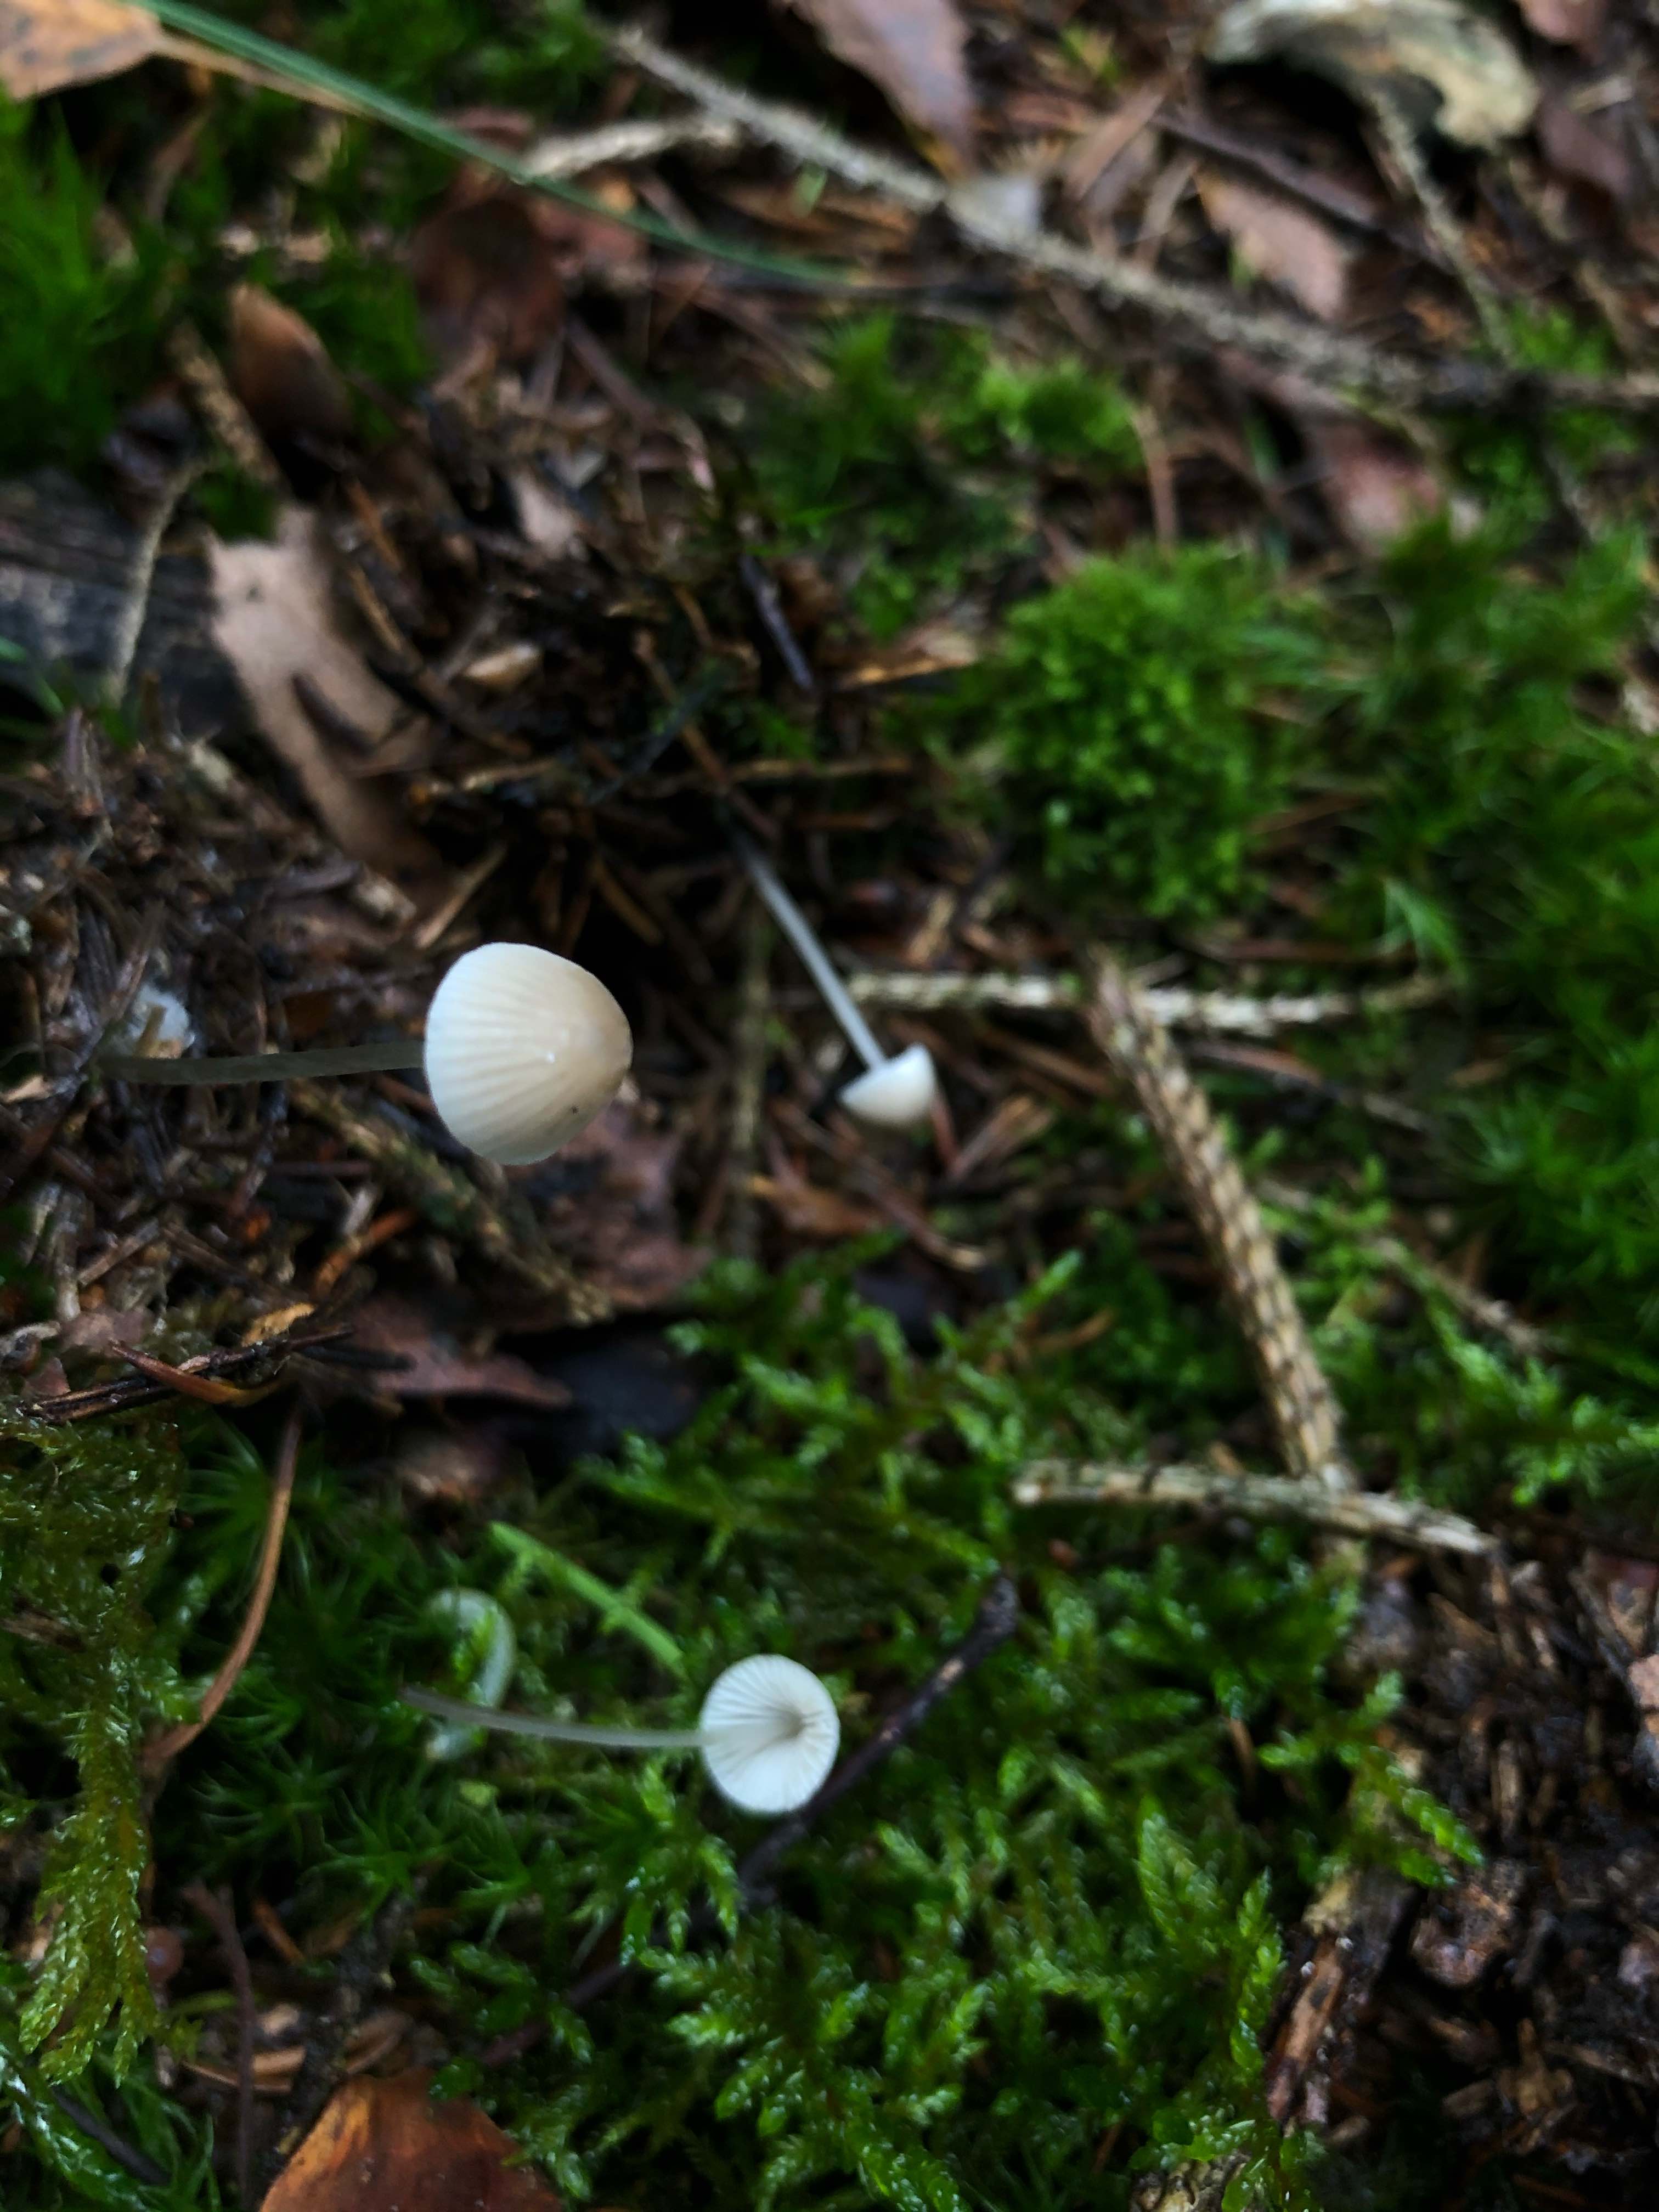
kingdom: Fungi
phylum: Basidiomycota
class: Agaricomycetes
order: Agaricales
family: Mycenaceae
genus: Mycena
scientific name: Mycena
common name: huesvamp
